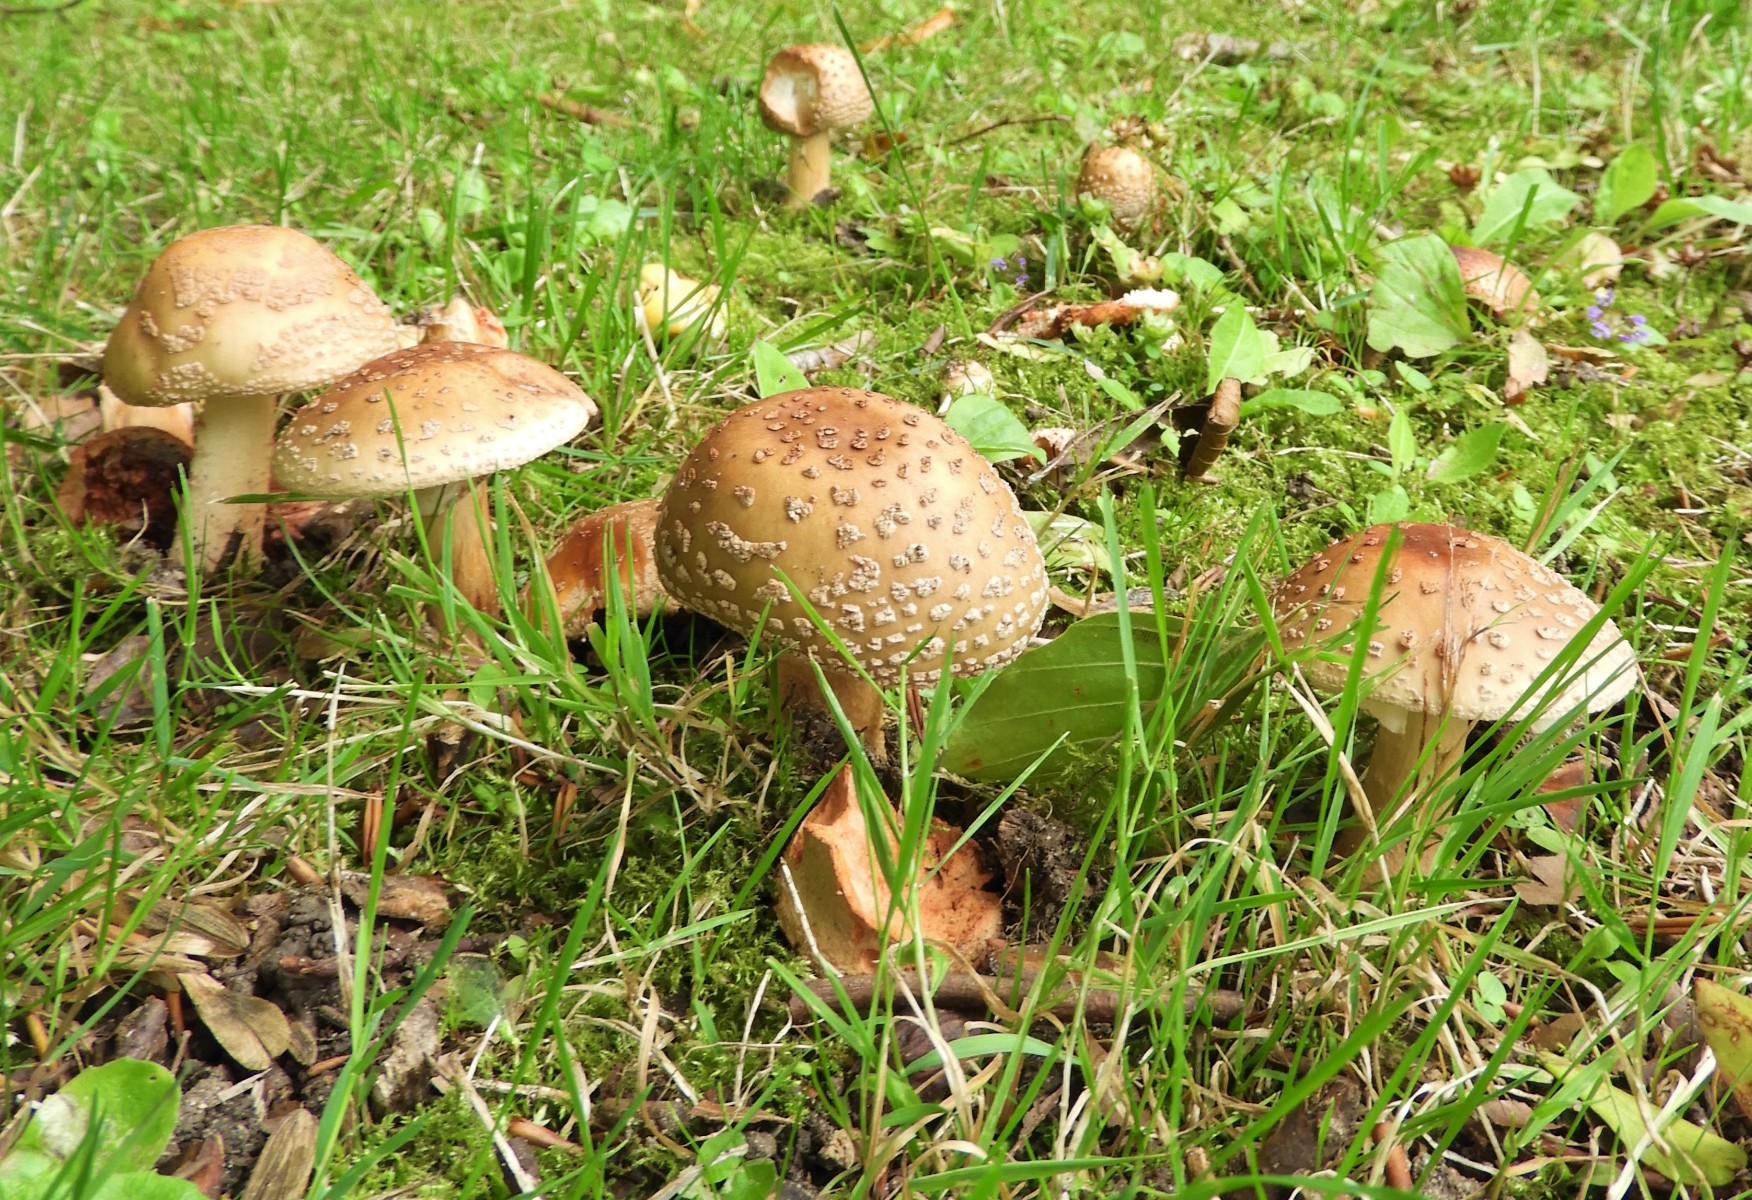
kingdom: Fungi
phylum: Basidiomycota
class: Agaricomycetes
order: Agaricales
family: Amanitaceae
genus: Amanita
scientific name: Amanita rubescens
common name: rødmende fluesvamp
